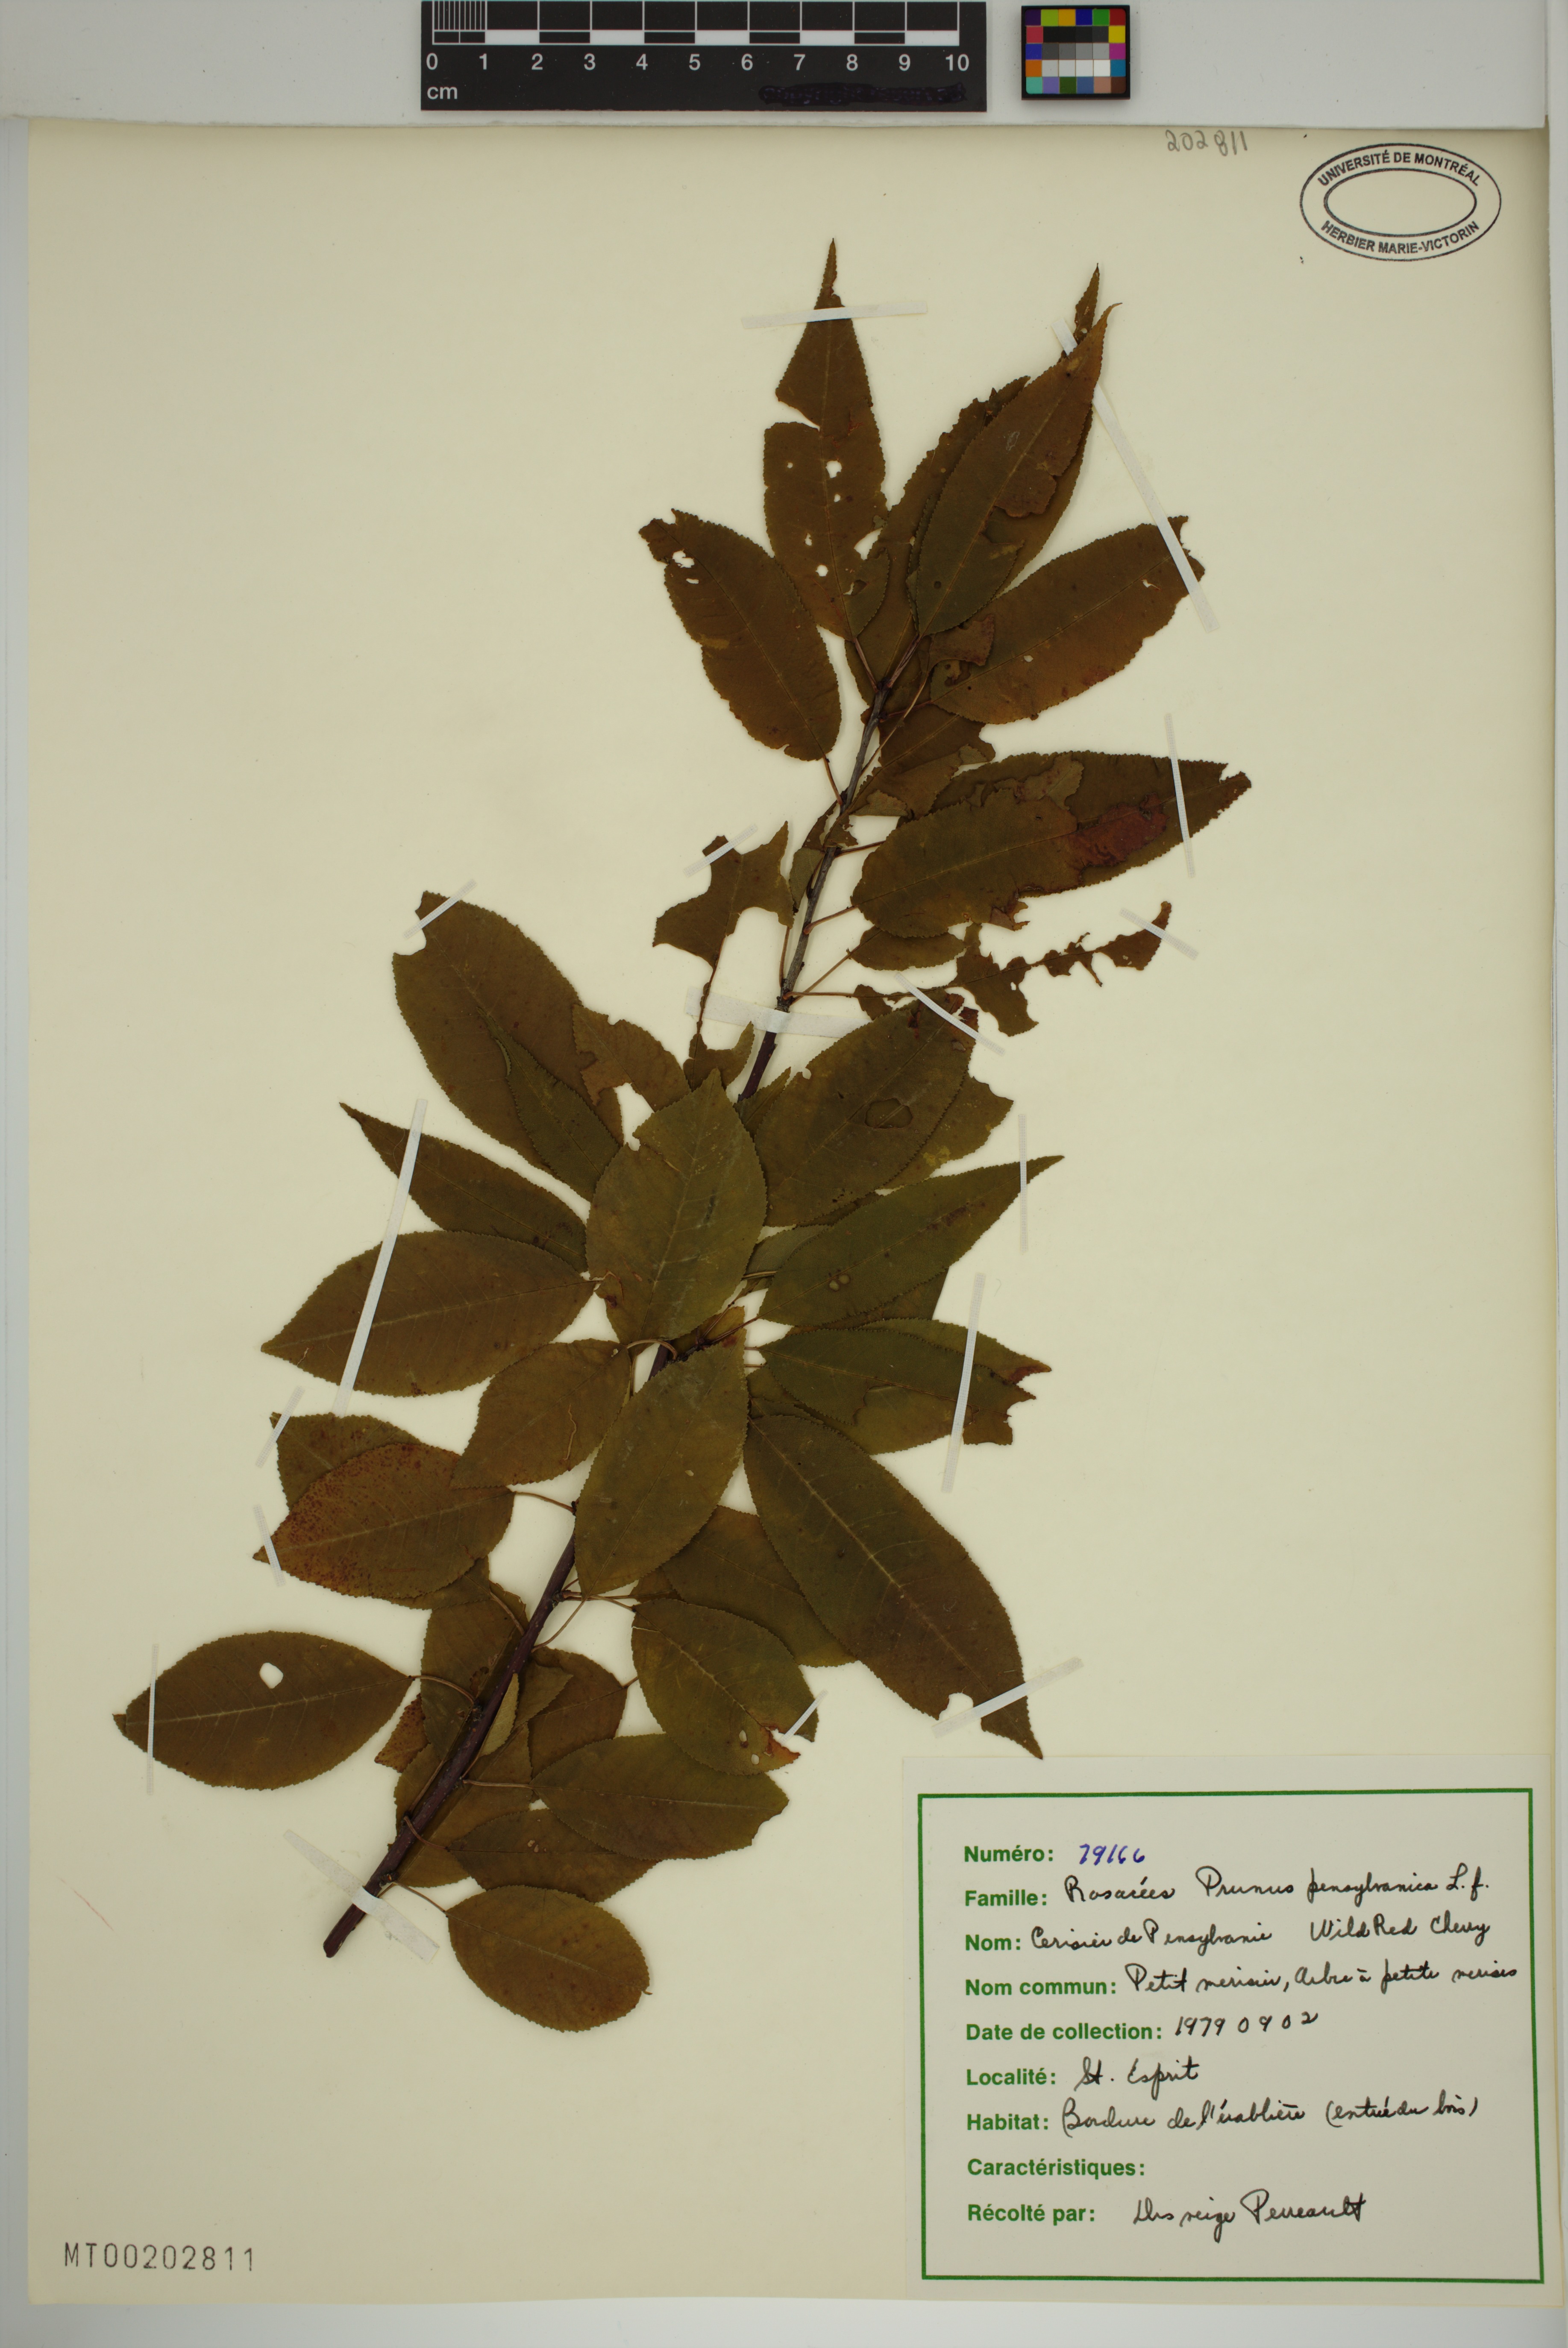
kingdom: Plantae
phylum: Tracheophyta
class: Magnoliopsida
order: Rosales
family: Rosaceae
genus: Prunus
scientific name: Prunus pensylvanica
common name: Pin cherry
